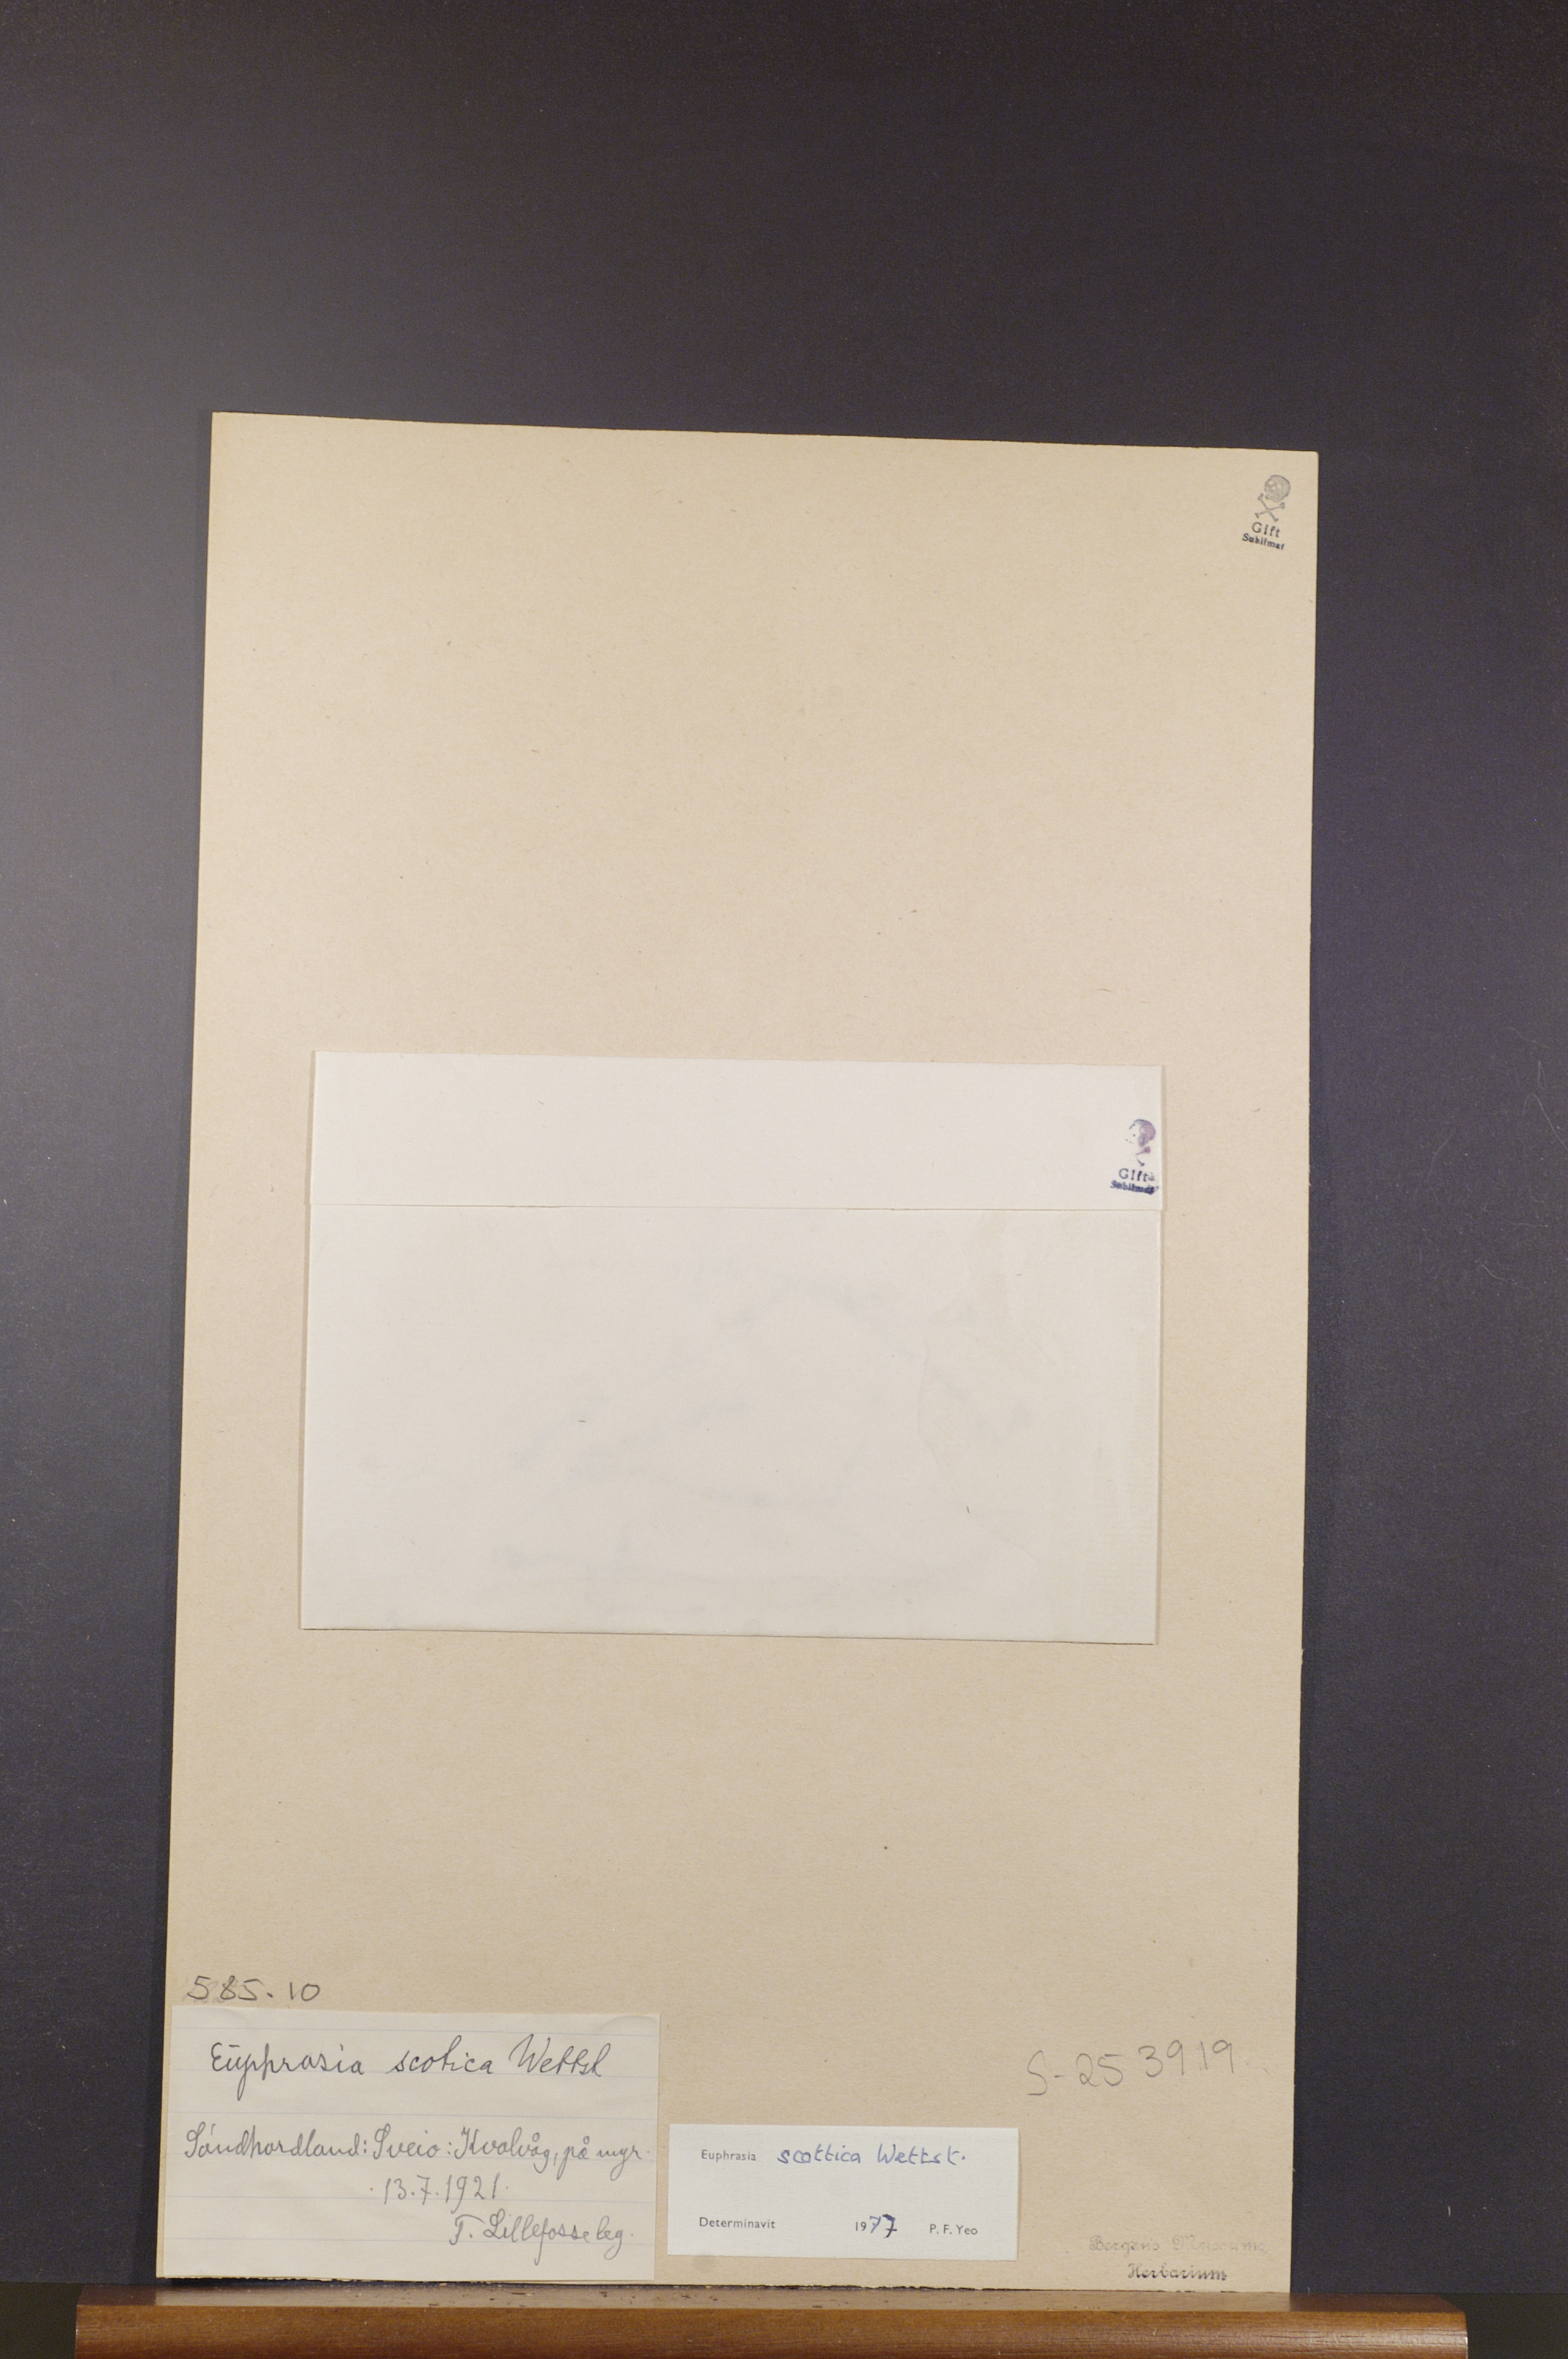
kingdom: Plantae
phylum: Tracheophyta
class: Magnoliopsida
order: Lamiales
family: Orobanchaceae
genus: Euphrasia
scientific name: Euphrasia scottica
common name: Slender scottish eyebright
